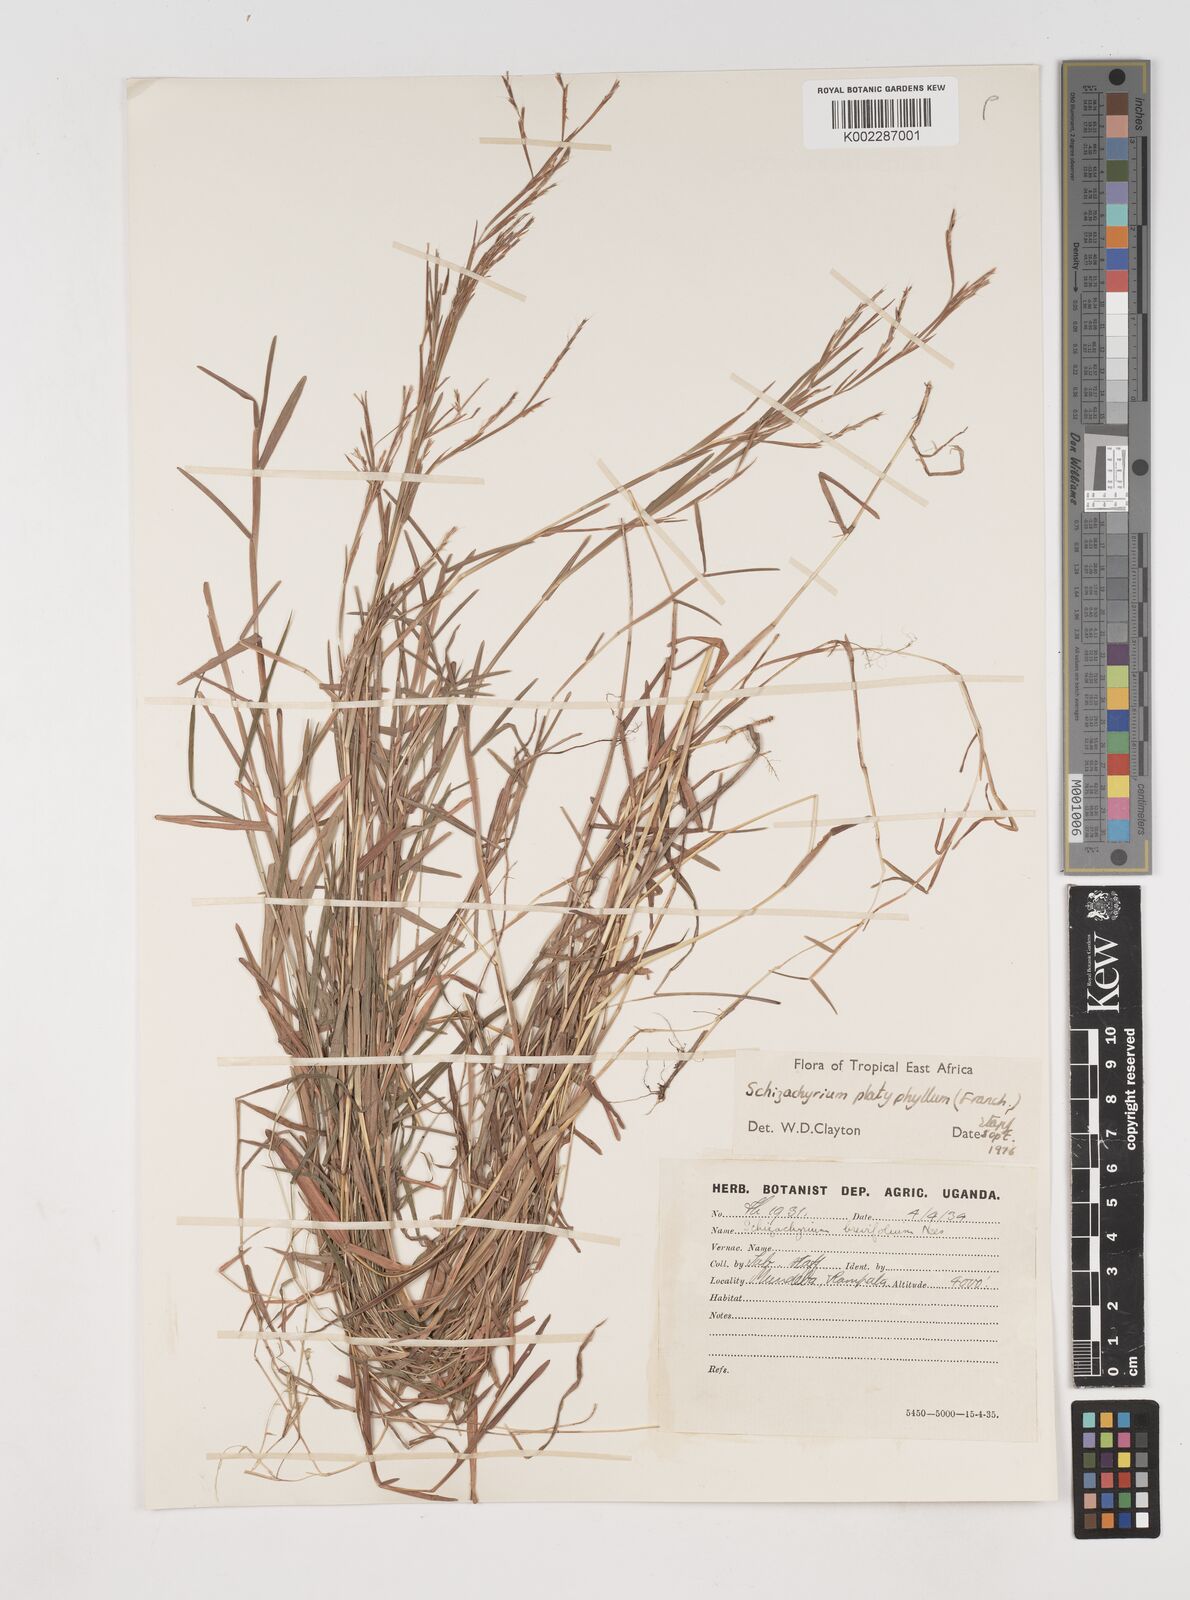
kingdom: Plantae
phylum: Tracheophyta
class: Liliopsida
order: Poales
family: Poaceae
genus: Schizachyrium
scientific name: Schizachyrium platyphyllum
